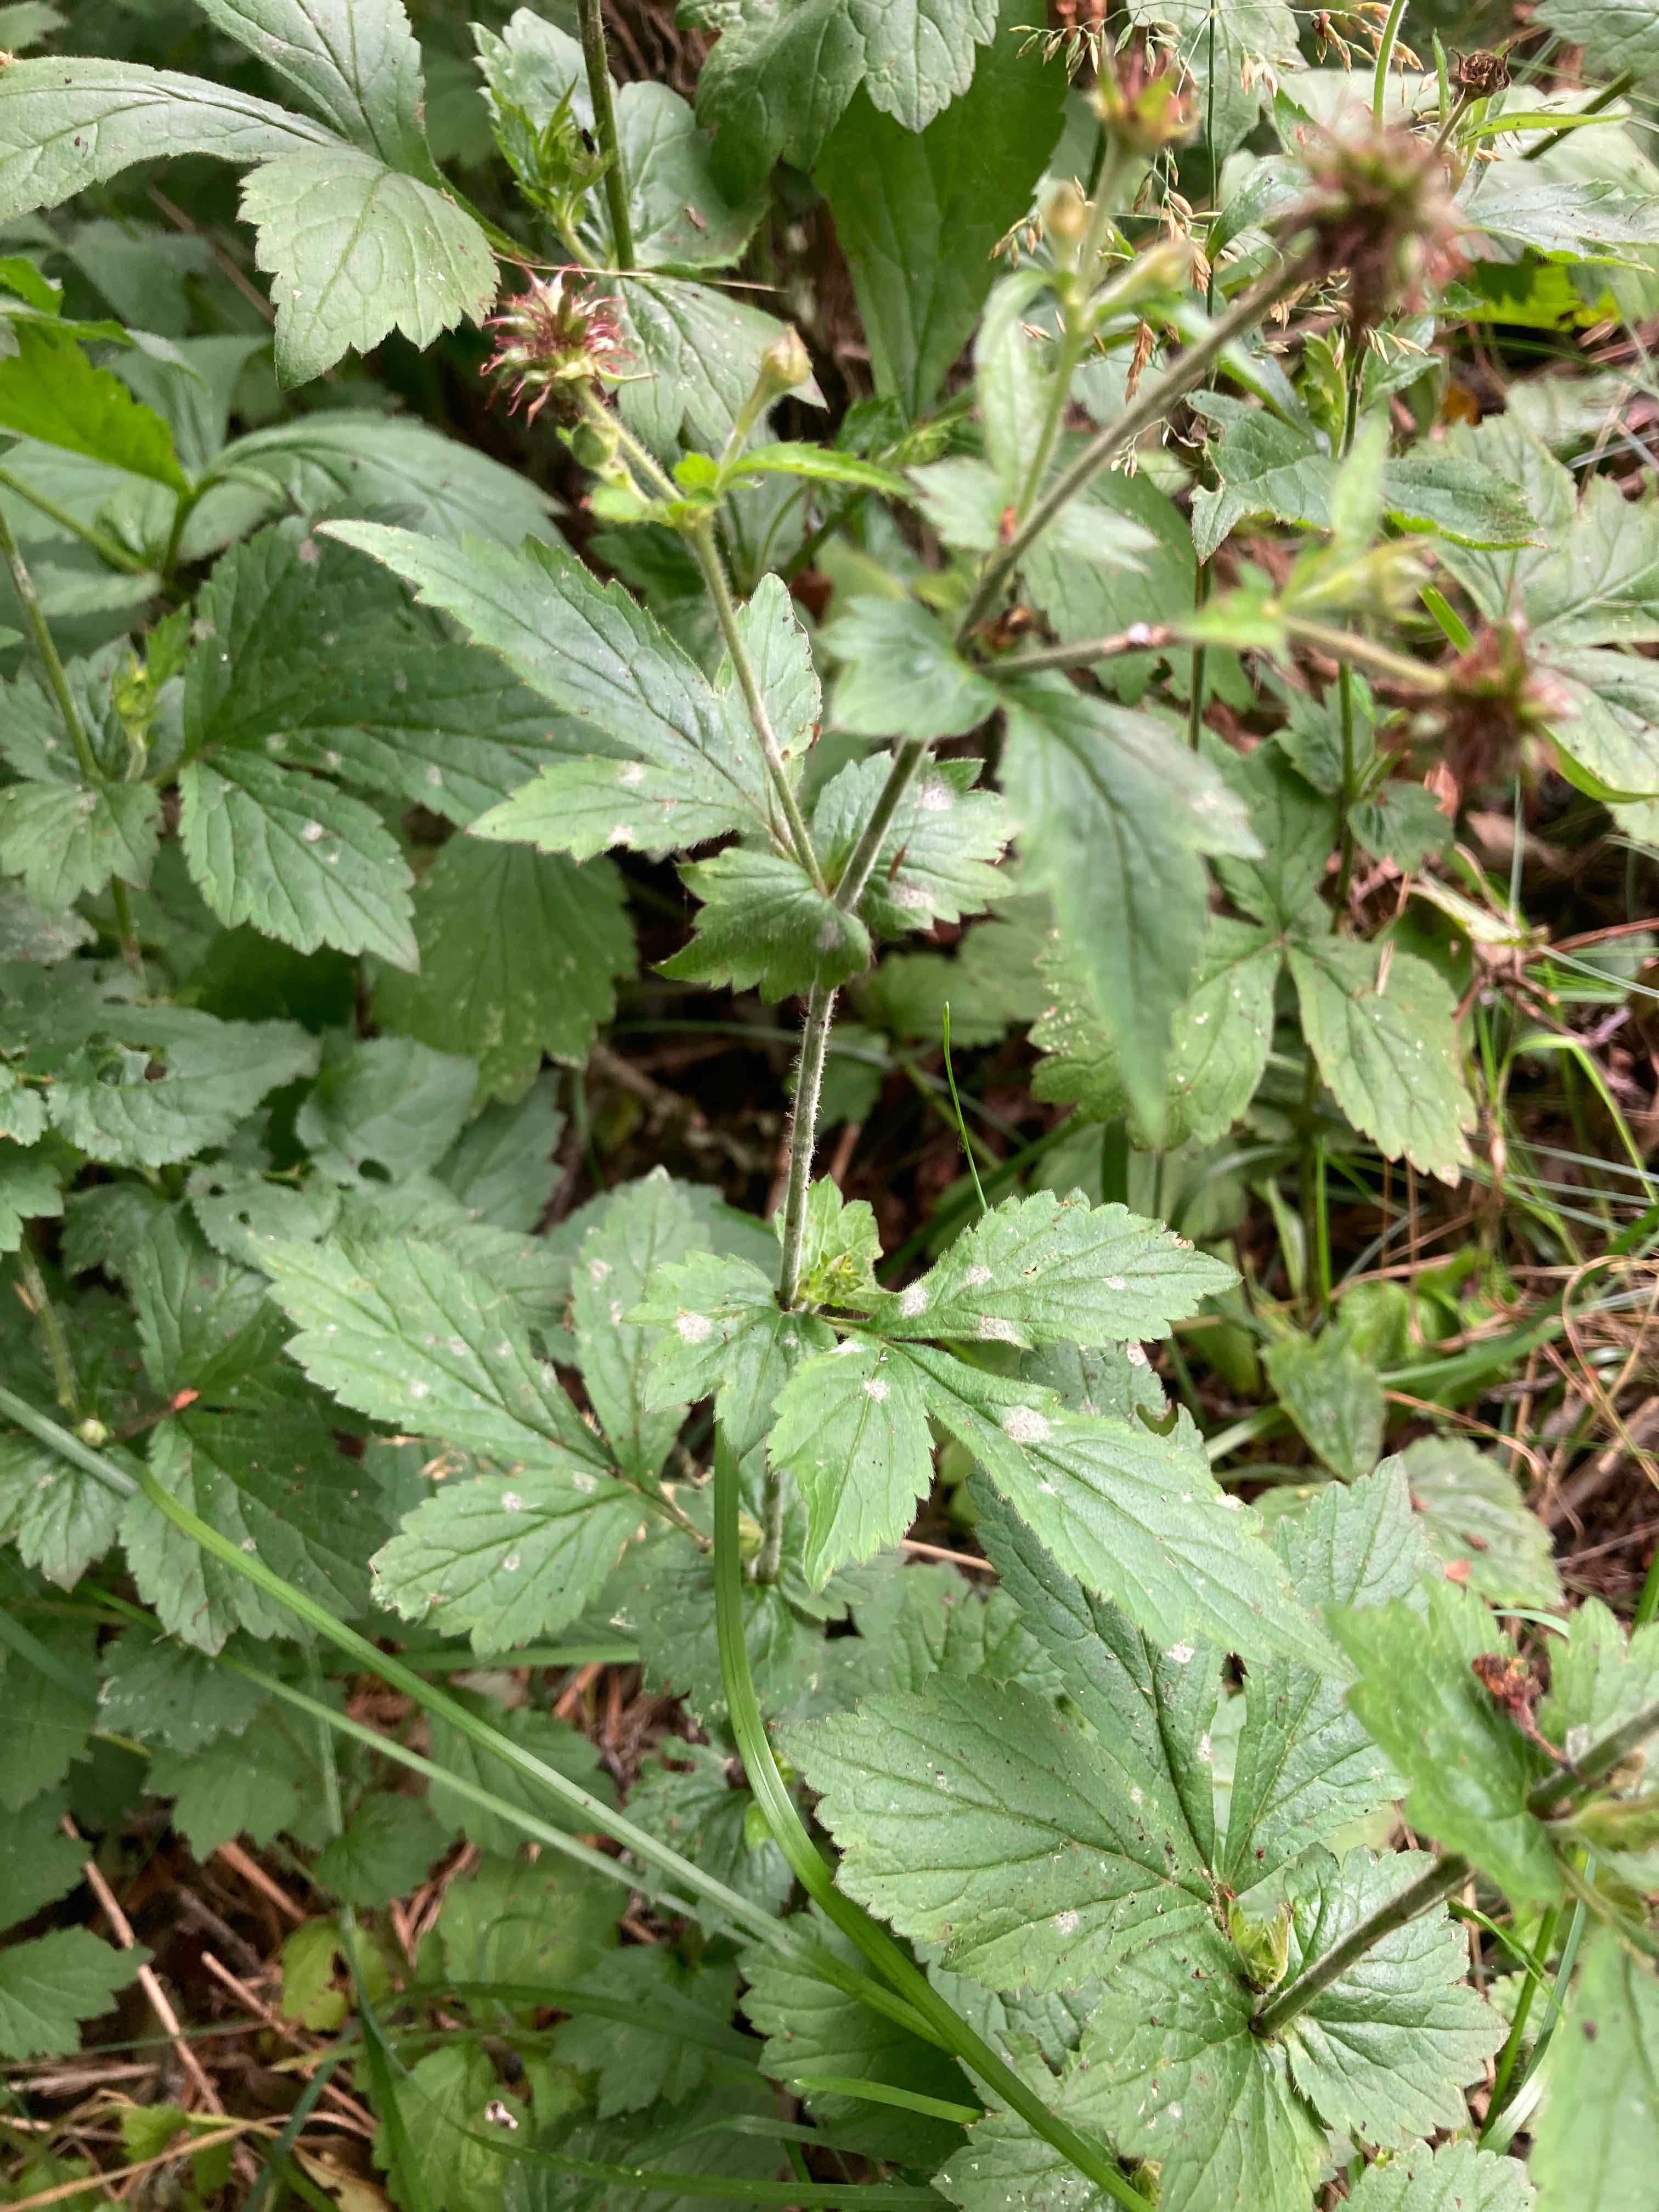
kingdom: Fungi
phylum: Ascomycota
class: Leotiomycetes
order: Helotiales
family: Erysiphaceae
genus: Podosphaera
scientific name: Podosphaera aphanis
